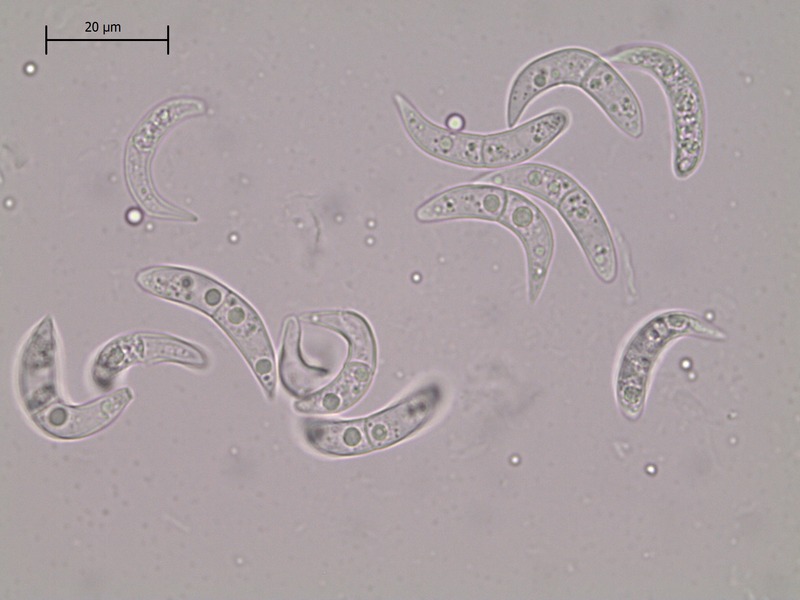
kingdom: Fungi
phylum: Ascomycota
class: Sordariomycetes
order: Diaporthales
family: Gnomoniaceae
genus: Ophiognomonia
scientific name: Ophiognomonia leptostyla
